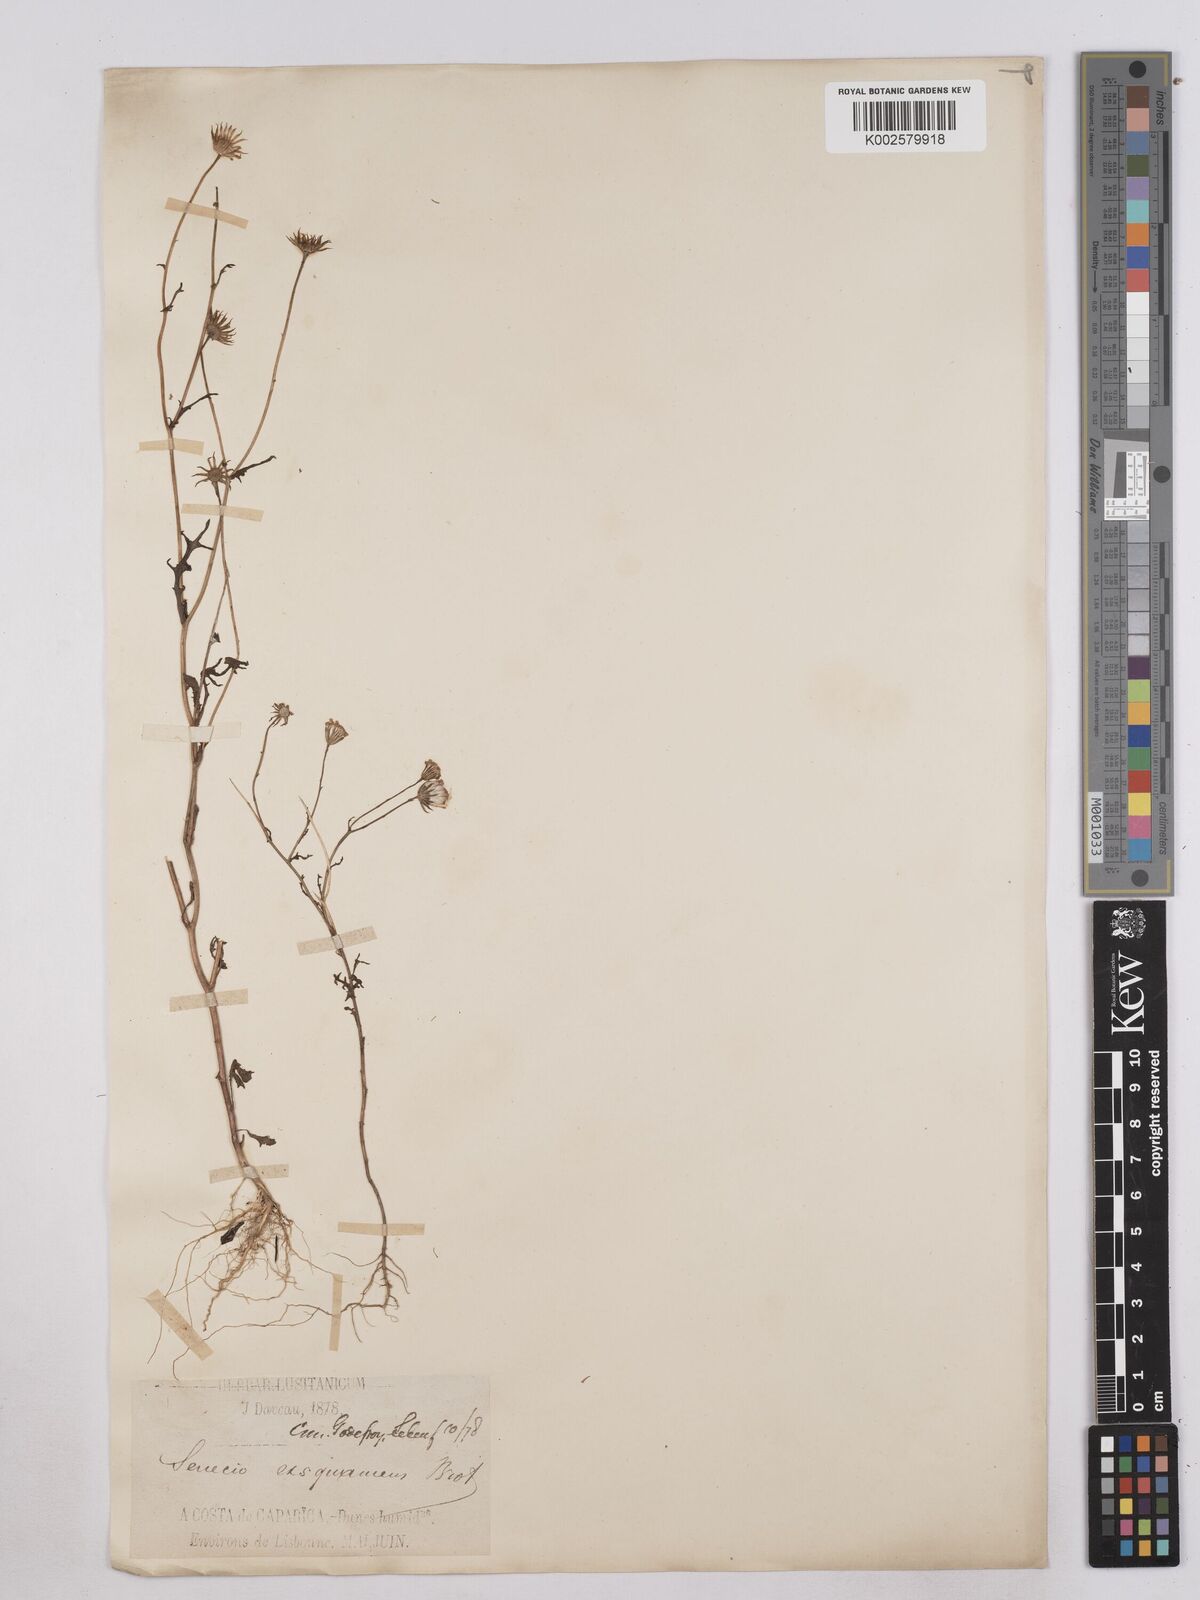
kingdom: Plantae
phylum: Tracheophyta
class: Magnoliopsida
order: Asterales
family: Asteraceae
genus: Senecio
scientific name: Senecio gallicus
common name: French groundsel
